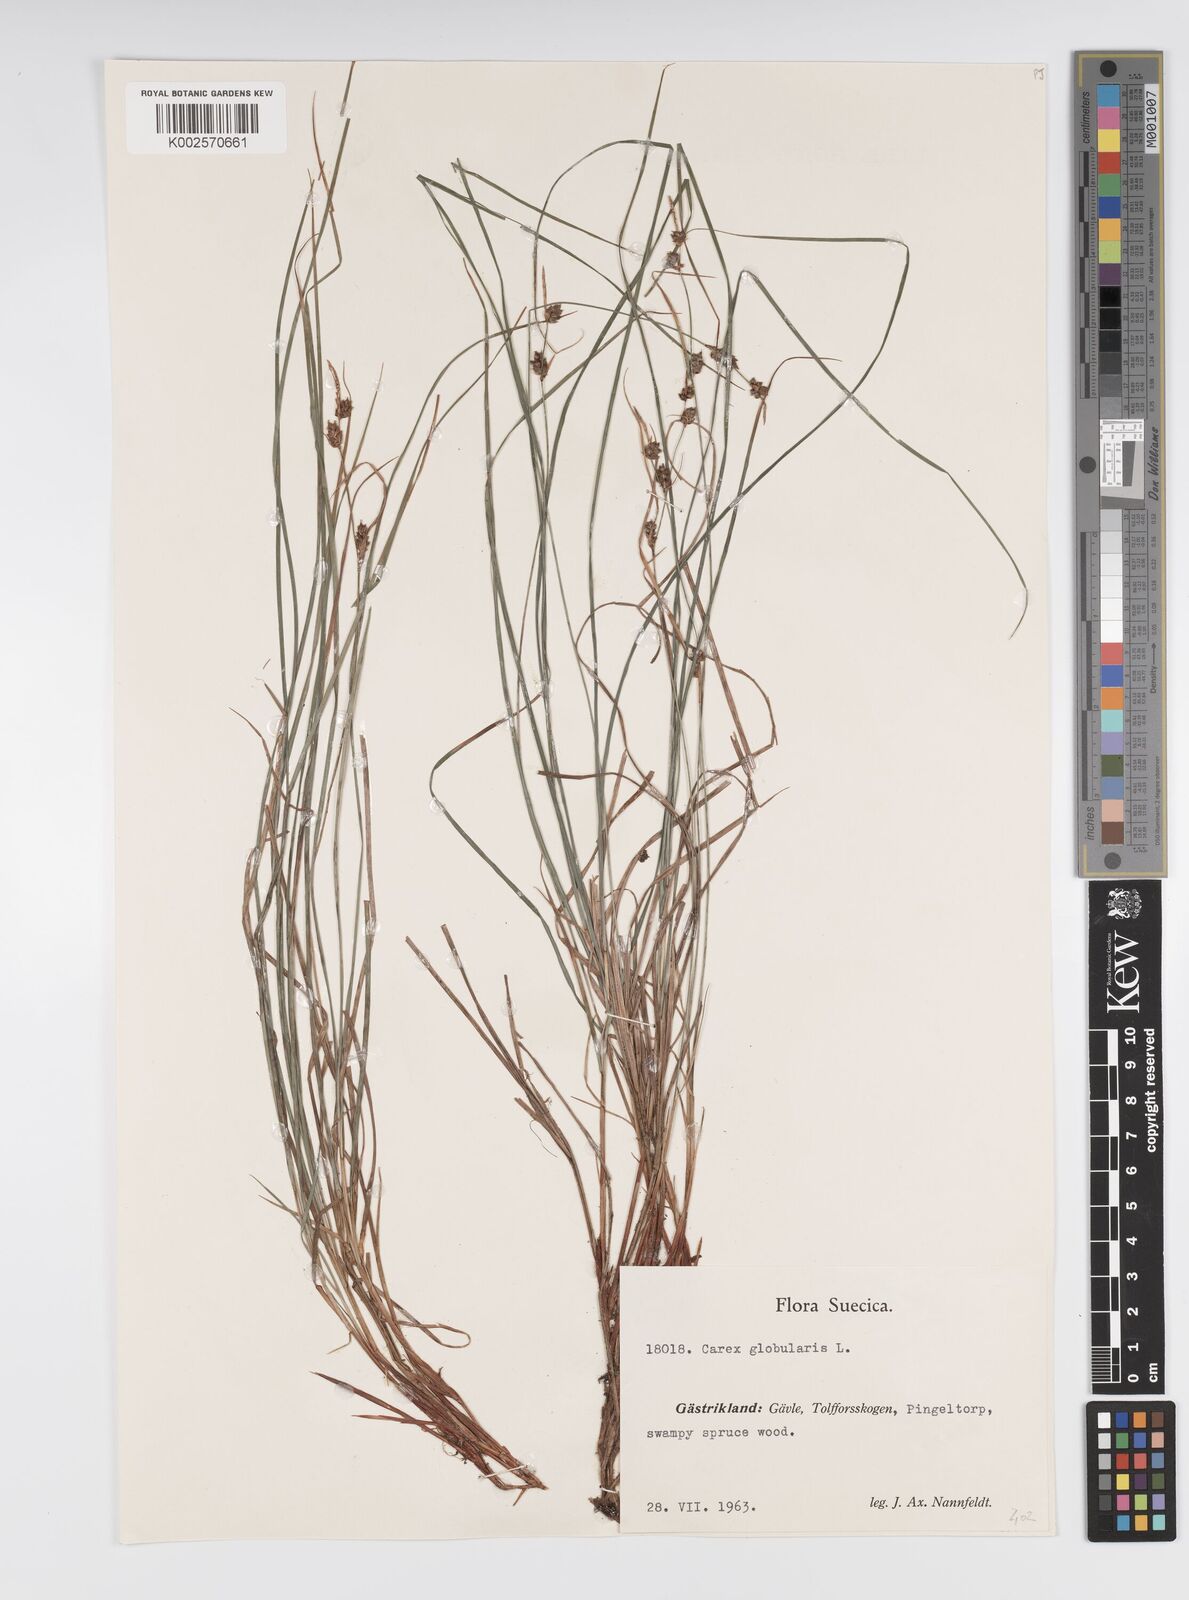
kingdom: Plantae
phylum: Tracheophyta
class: Liliopsida
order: Poales
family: Cyperaceae
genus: Carex
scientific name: Carex globularis
